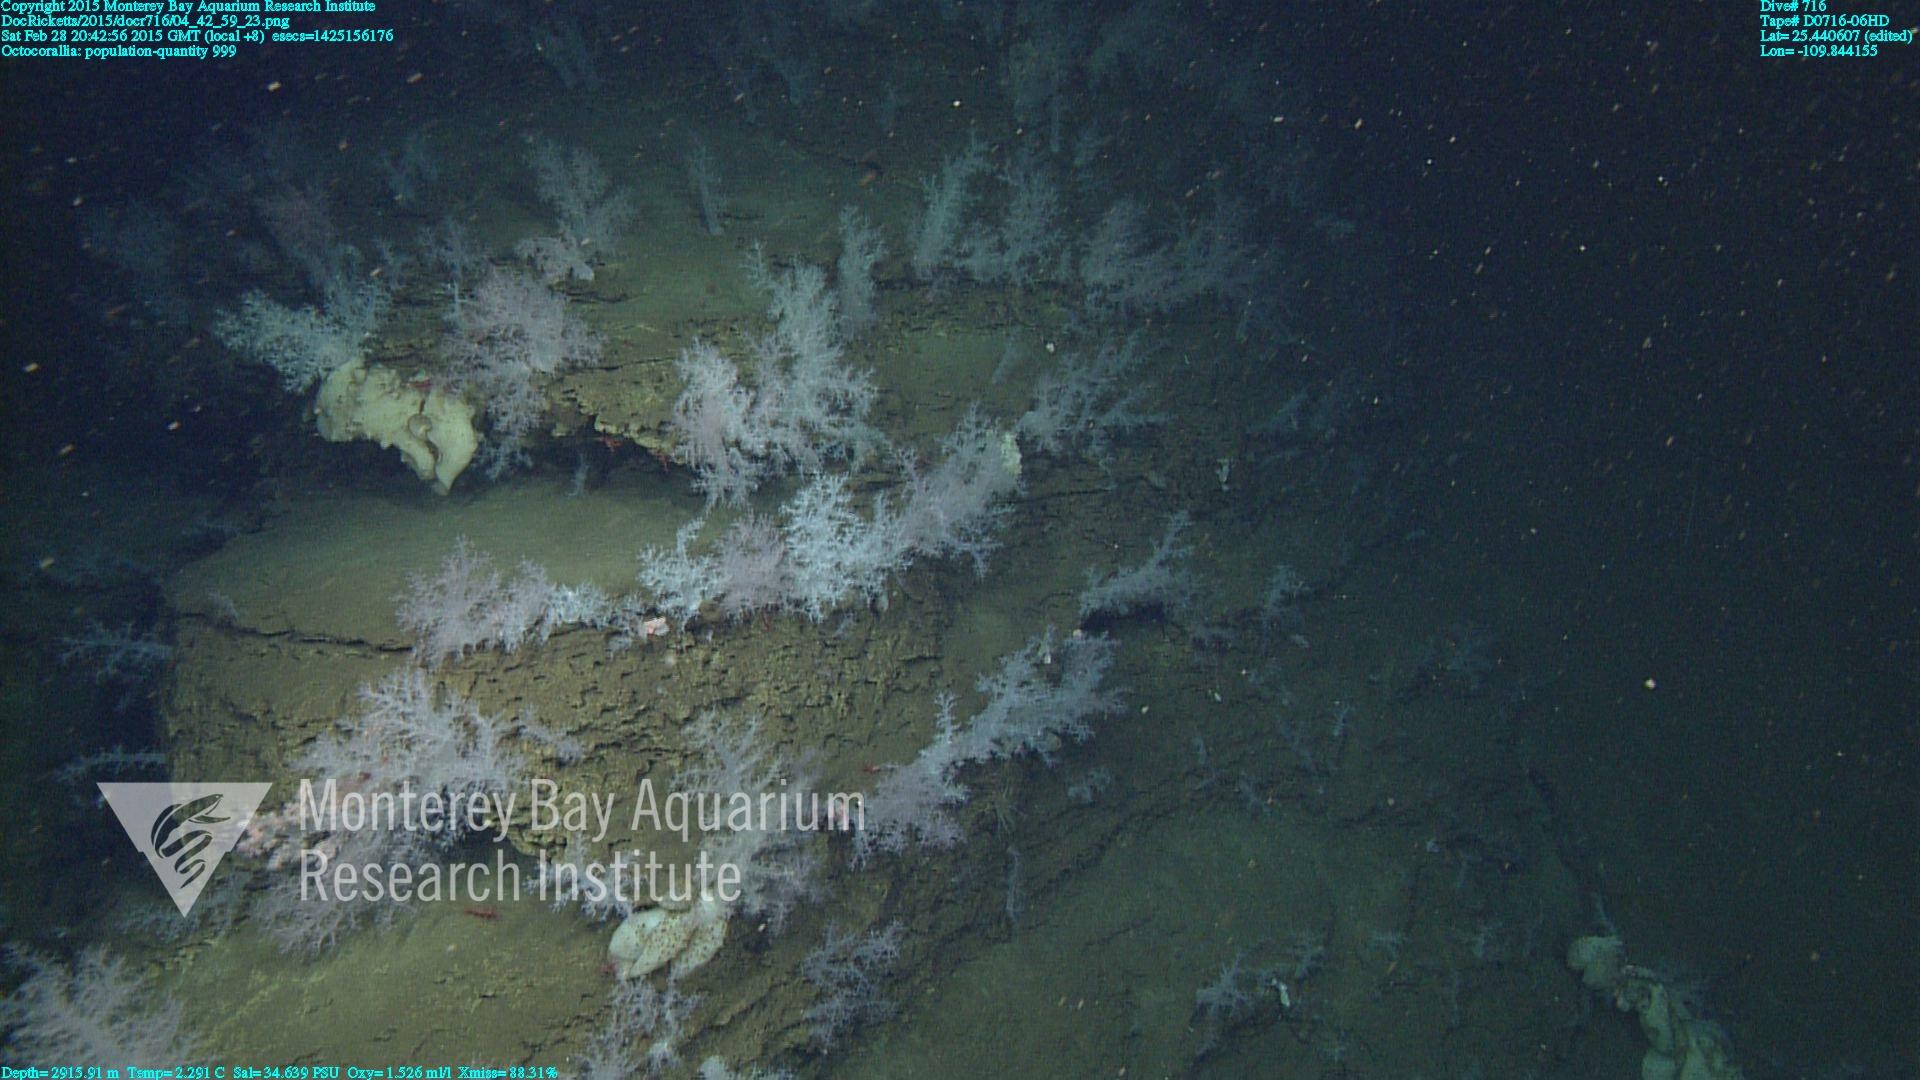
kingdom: Animalia
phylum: Cnidaria
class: Anthozoa
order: Malacalcyonacea
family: Alcyoniidae
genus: Gersemia
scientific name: Gersemia juliepackardae
